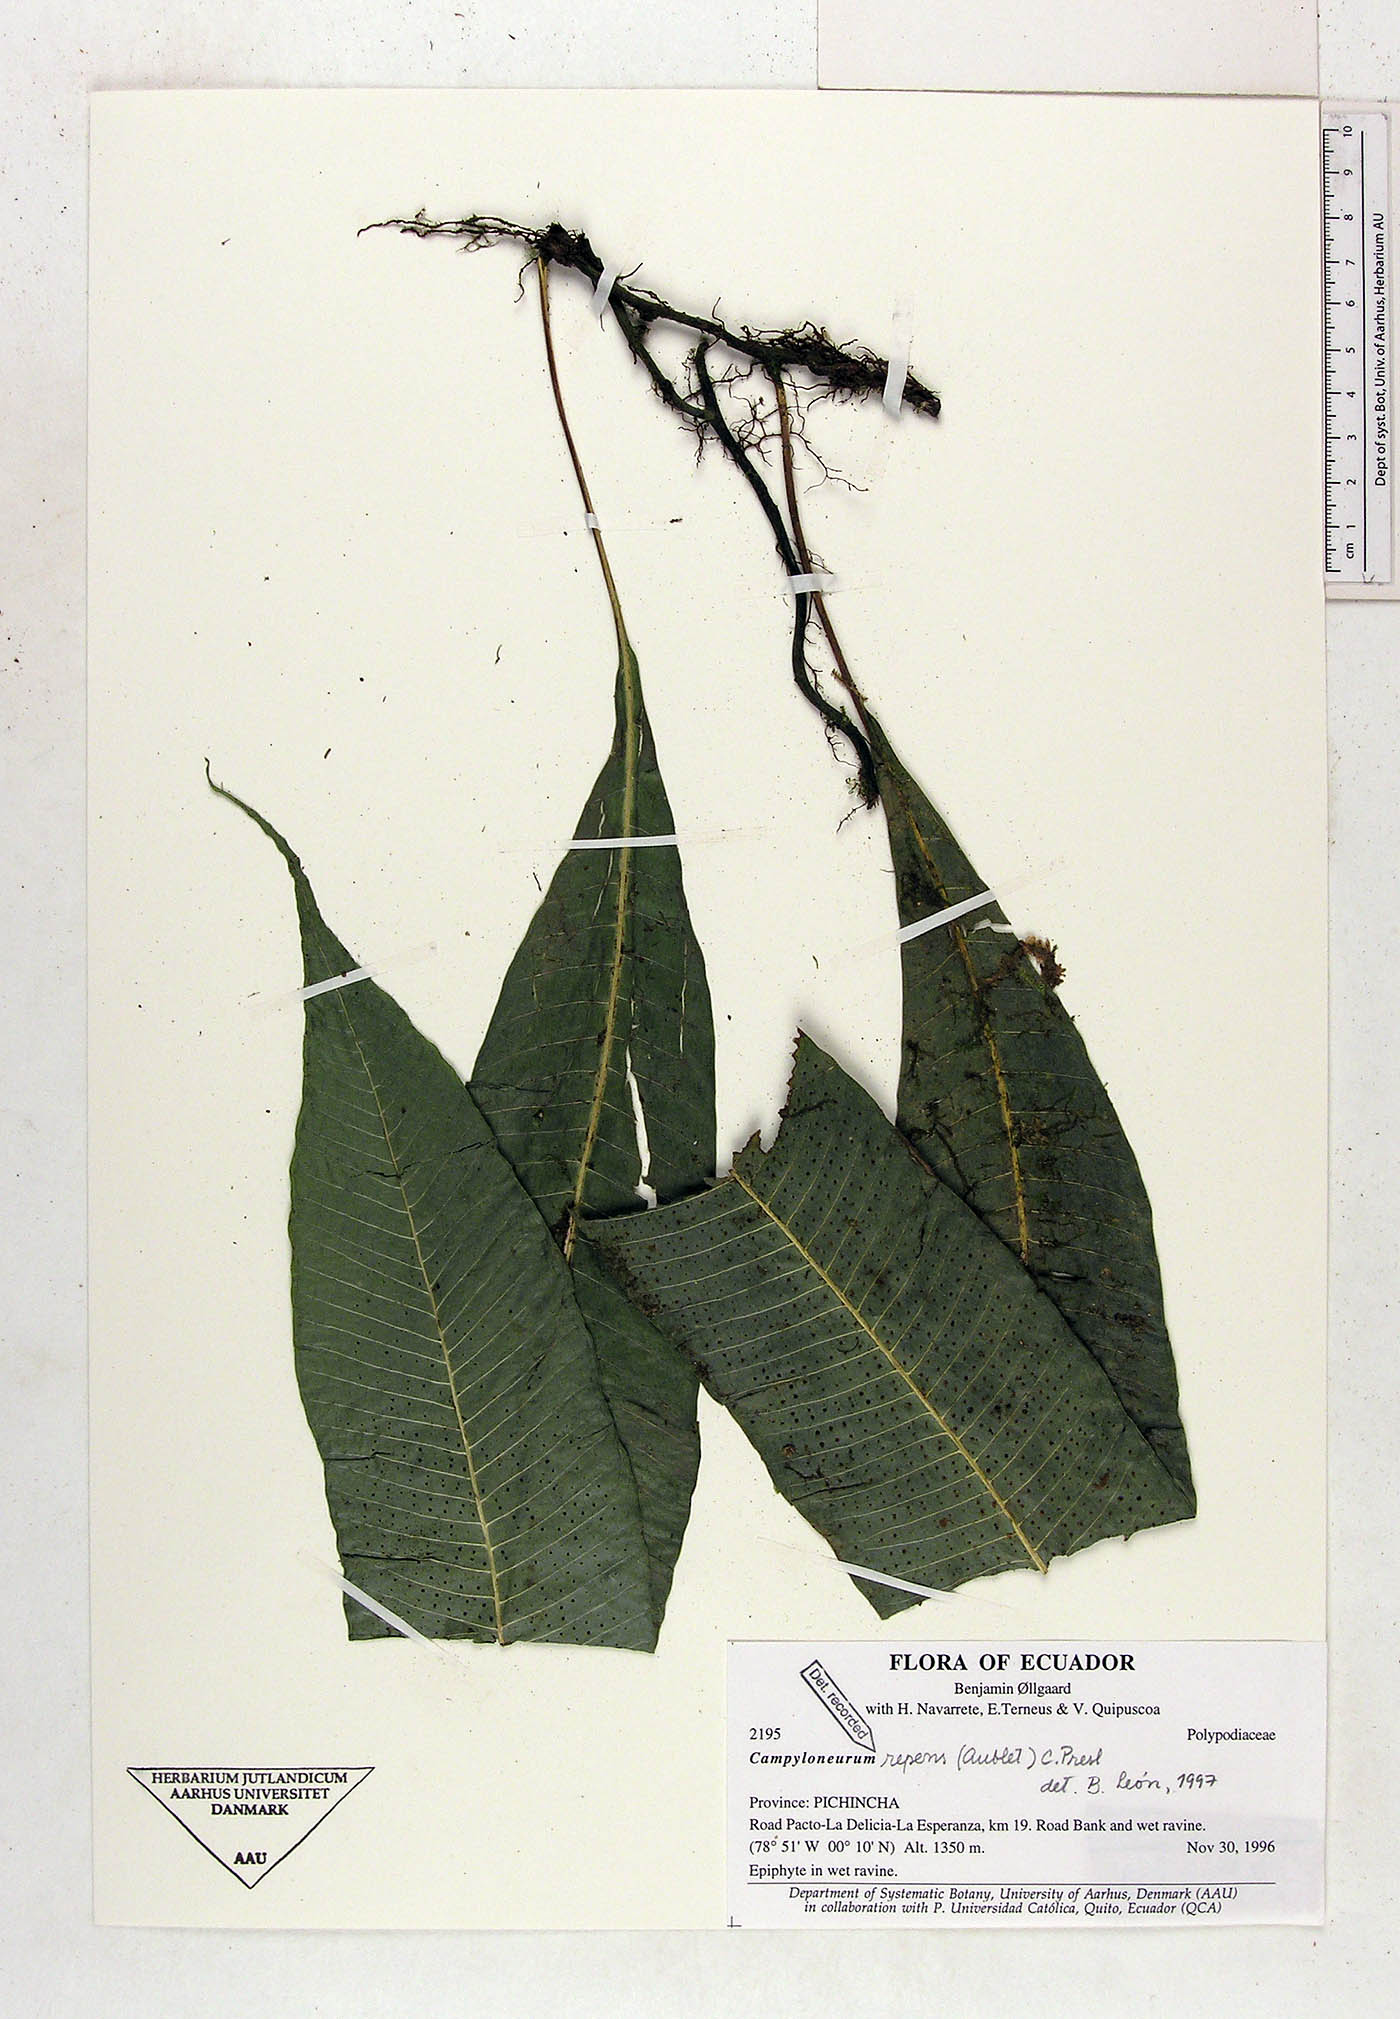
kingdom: Plantae
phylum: Tracheophyta
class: Polypodiopsida
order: Polypodiales
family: Polypodiaceae
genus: Campyloneurum
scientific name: Campyloneurum repens
